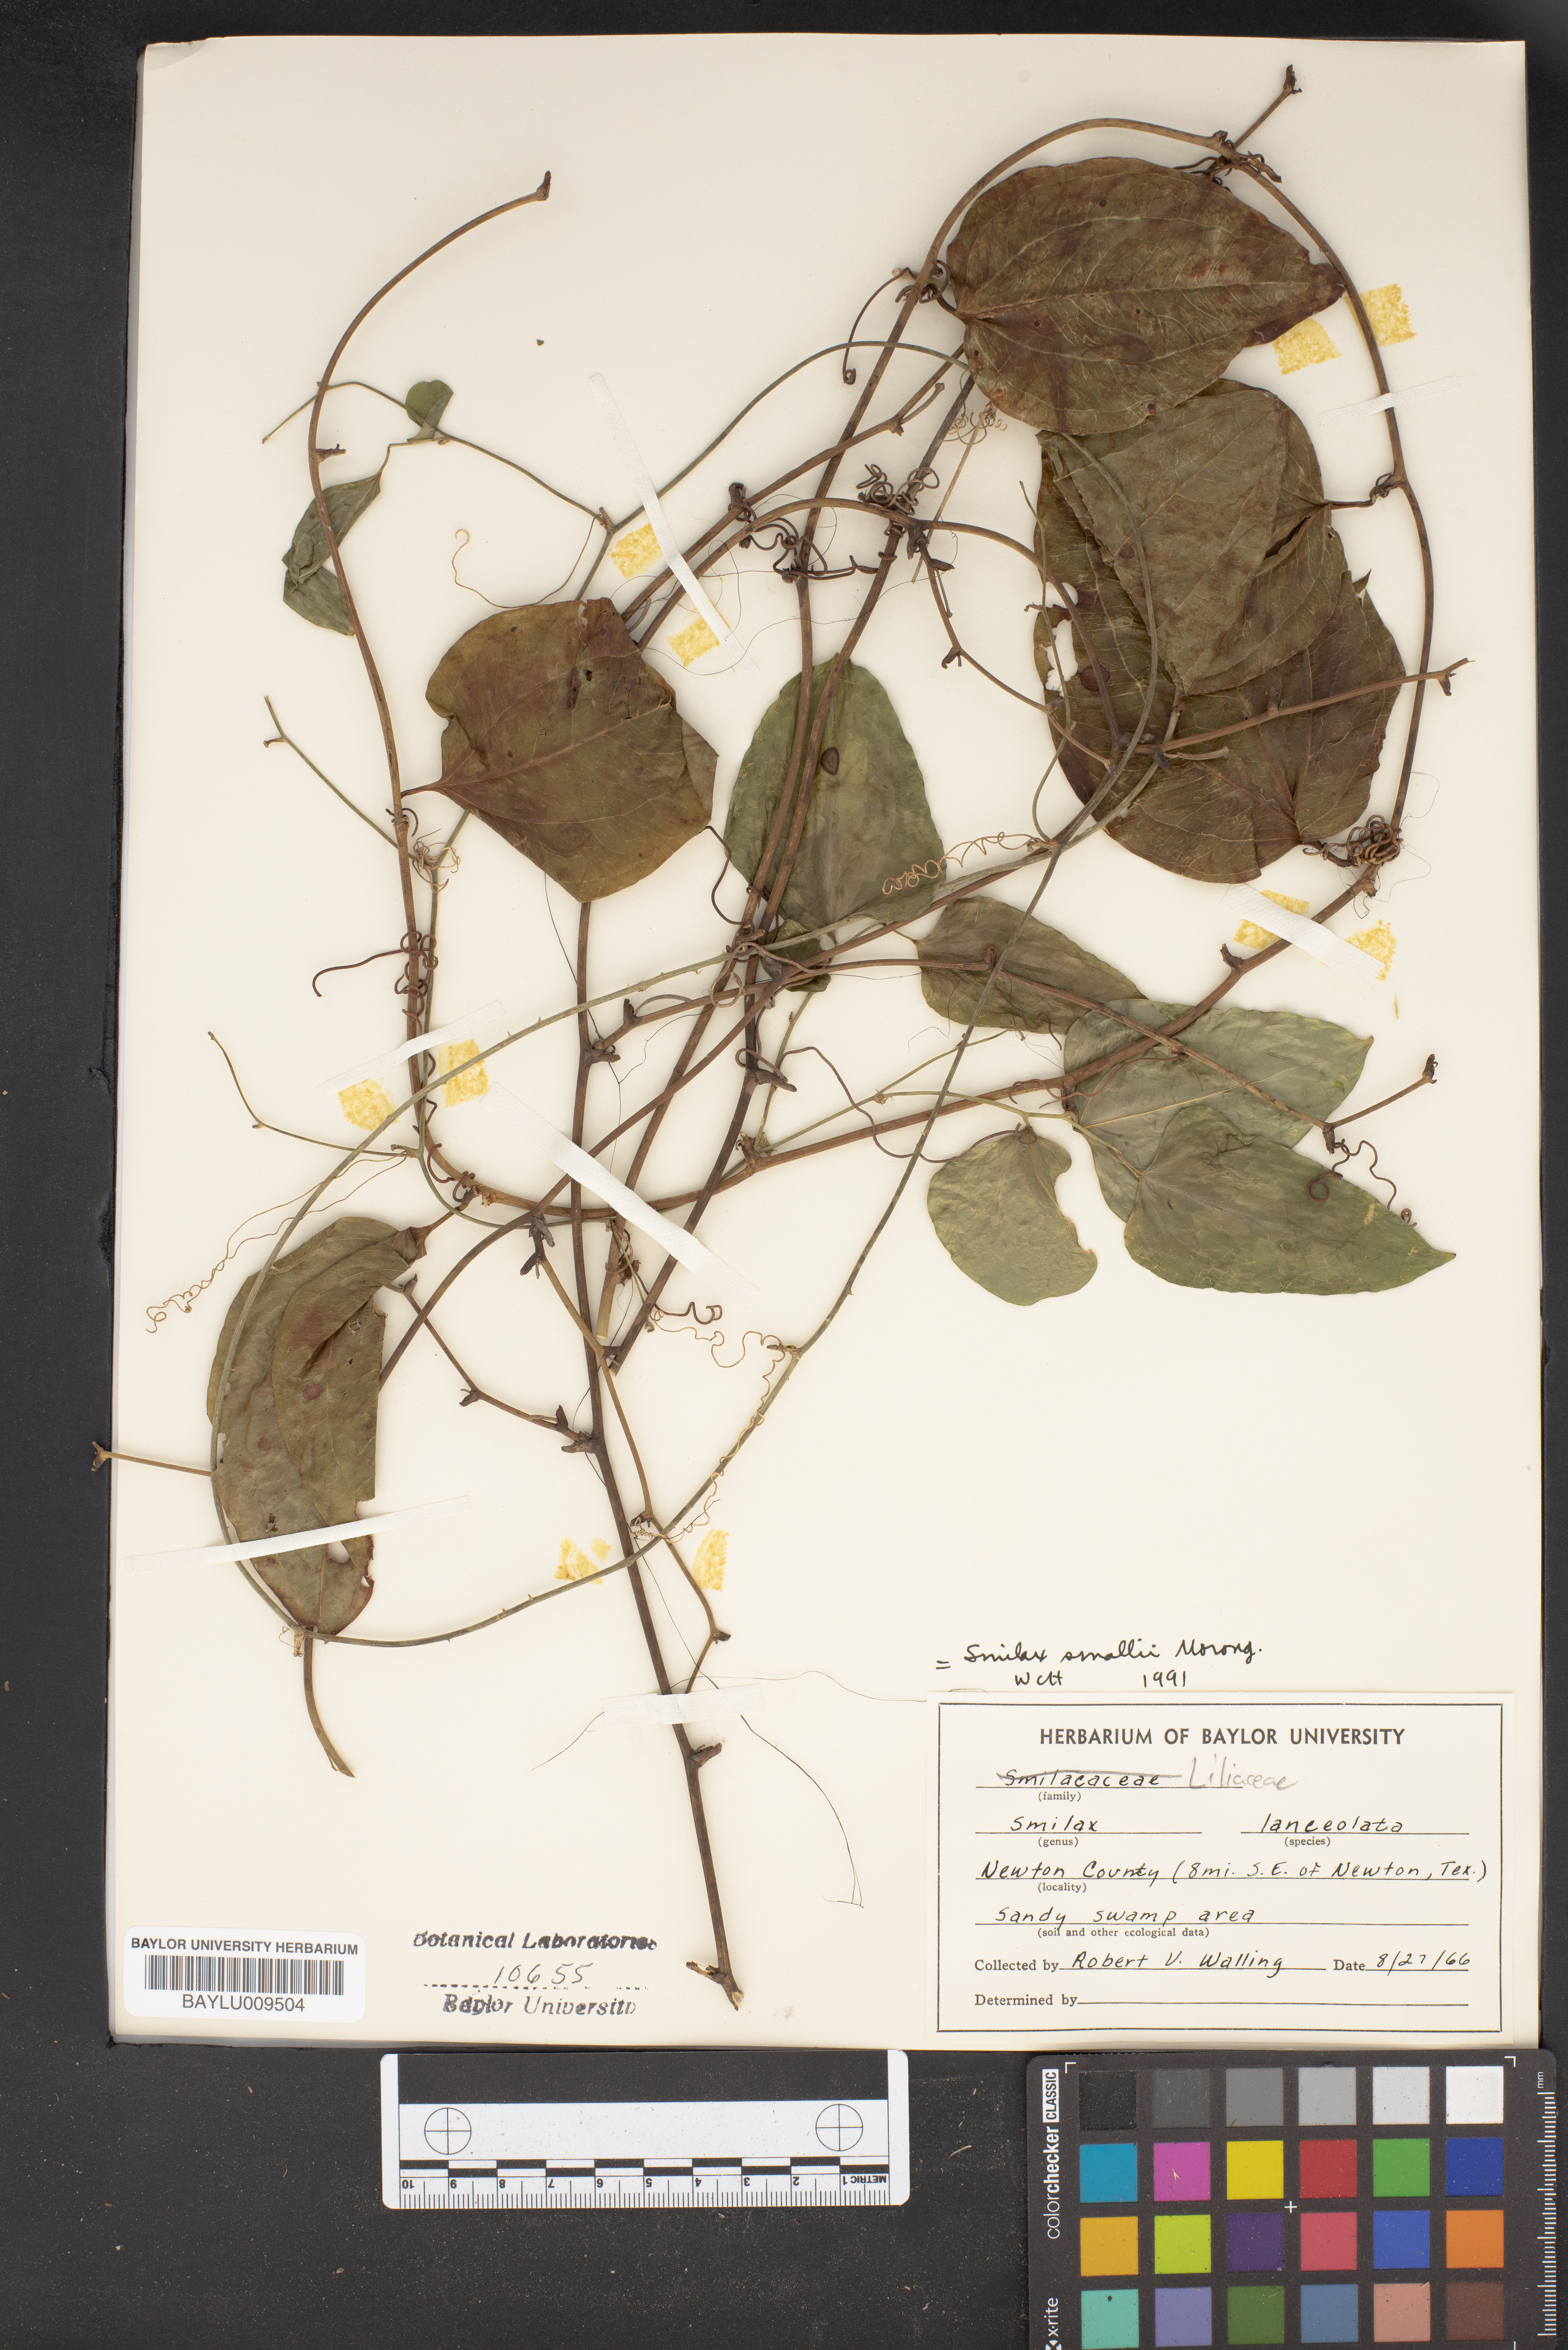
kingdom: Plantae
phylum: Tracheophyta
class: Liliopsida
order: Liliales
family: Smilacaceae
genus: Smilax
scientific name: Smilax laurifolia
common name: Bamboovine
